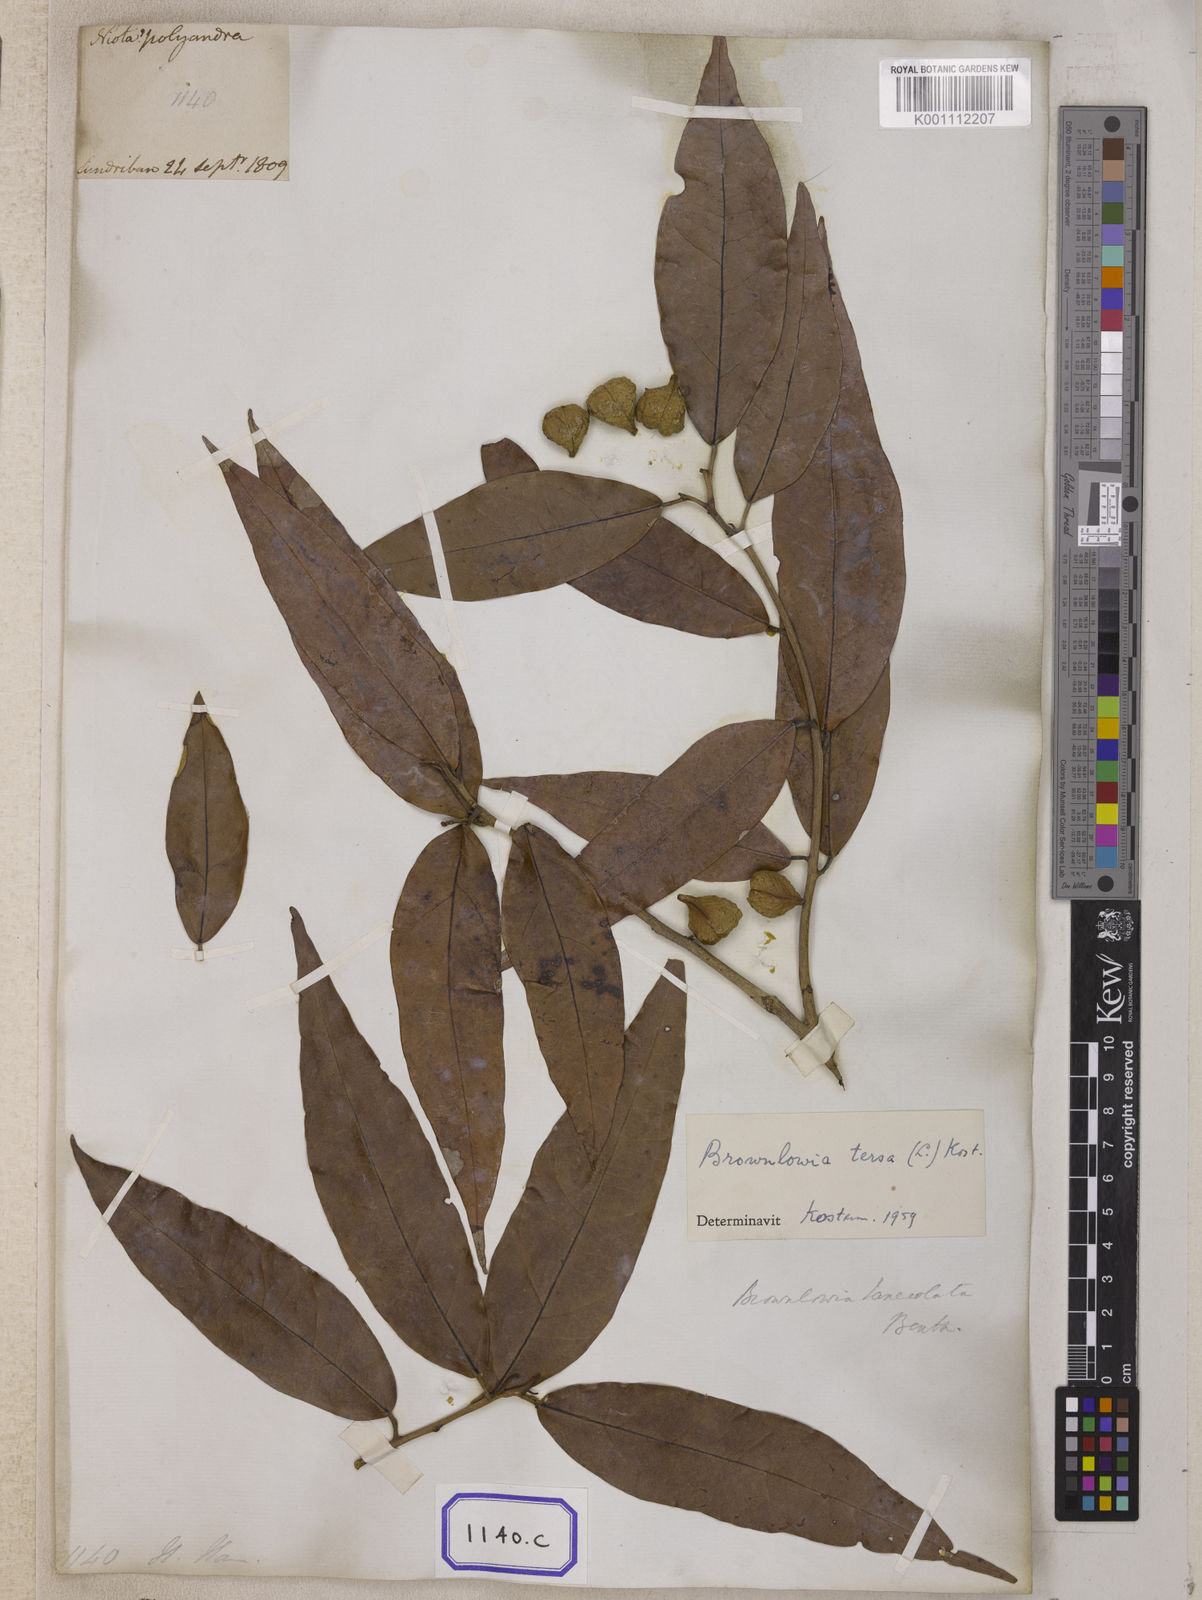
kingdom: Plantae
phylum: Tracheophyta
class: Magnoliopsida
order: Malvales
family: Malvaceae
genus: Brownlowia
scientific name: Brownlowia tersa
